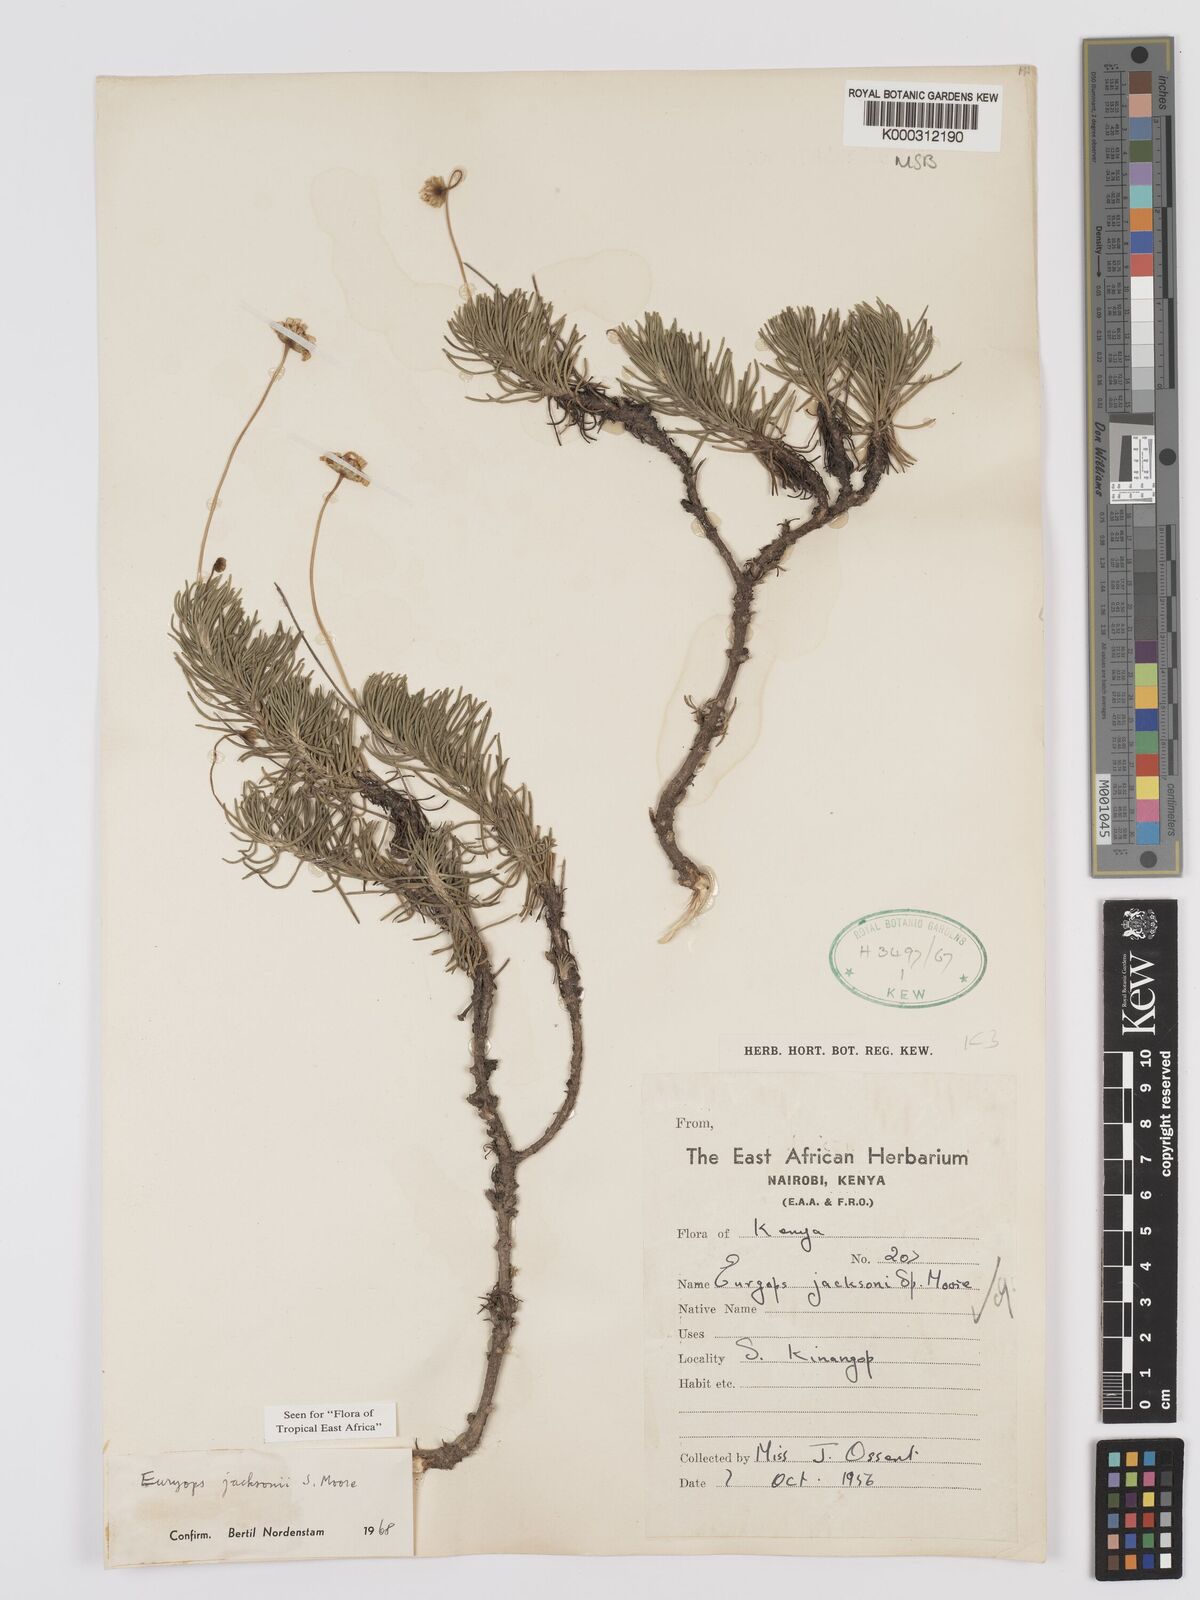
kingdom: Plantae
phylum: Tracheophyta
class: Magnoliopsida
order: Asterales
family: Asteraceae
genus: Euryops
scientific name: Euryops jacksonii
